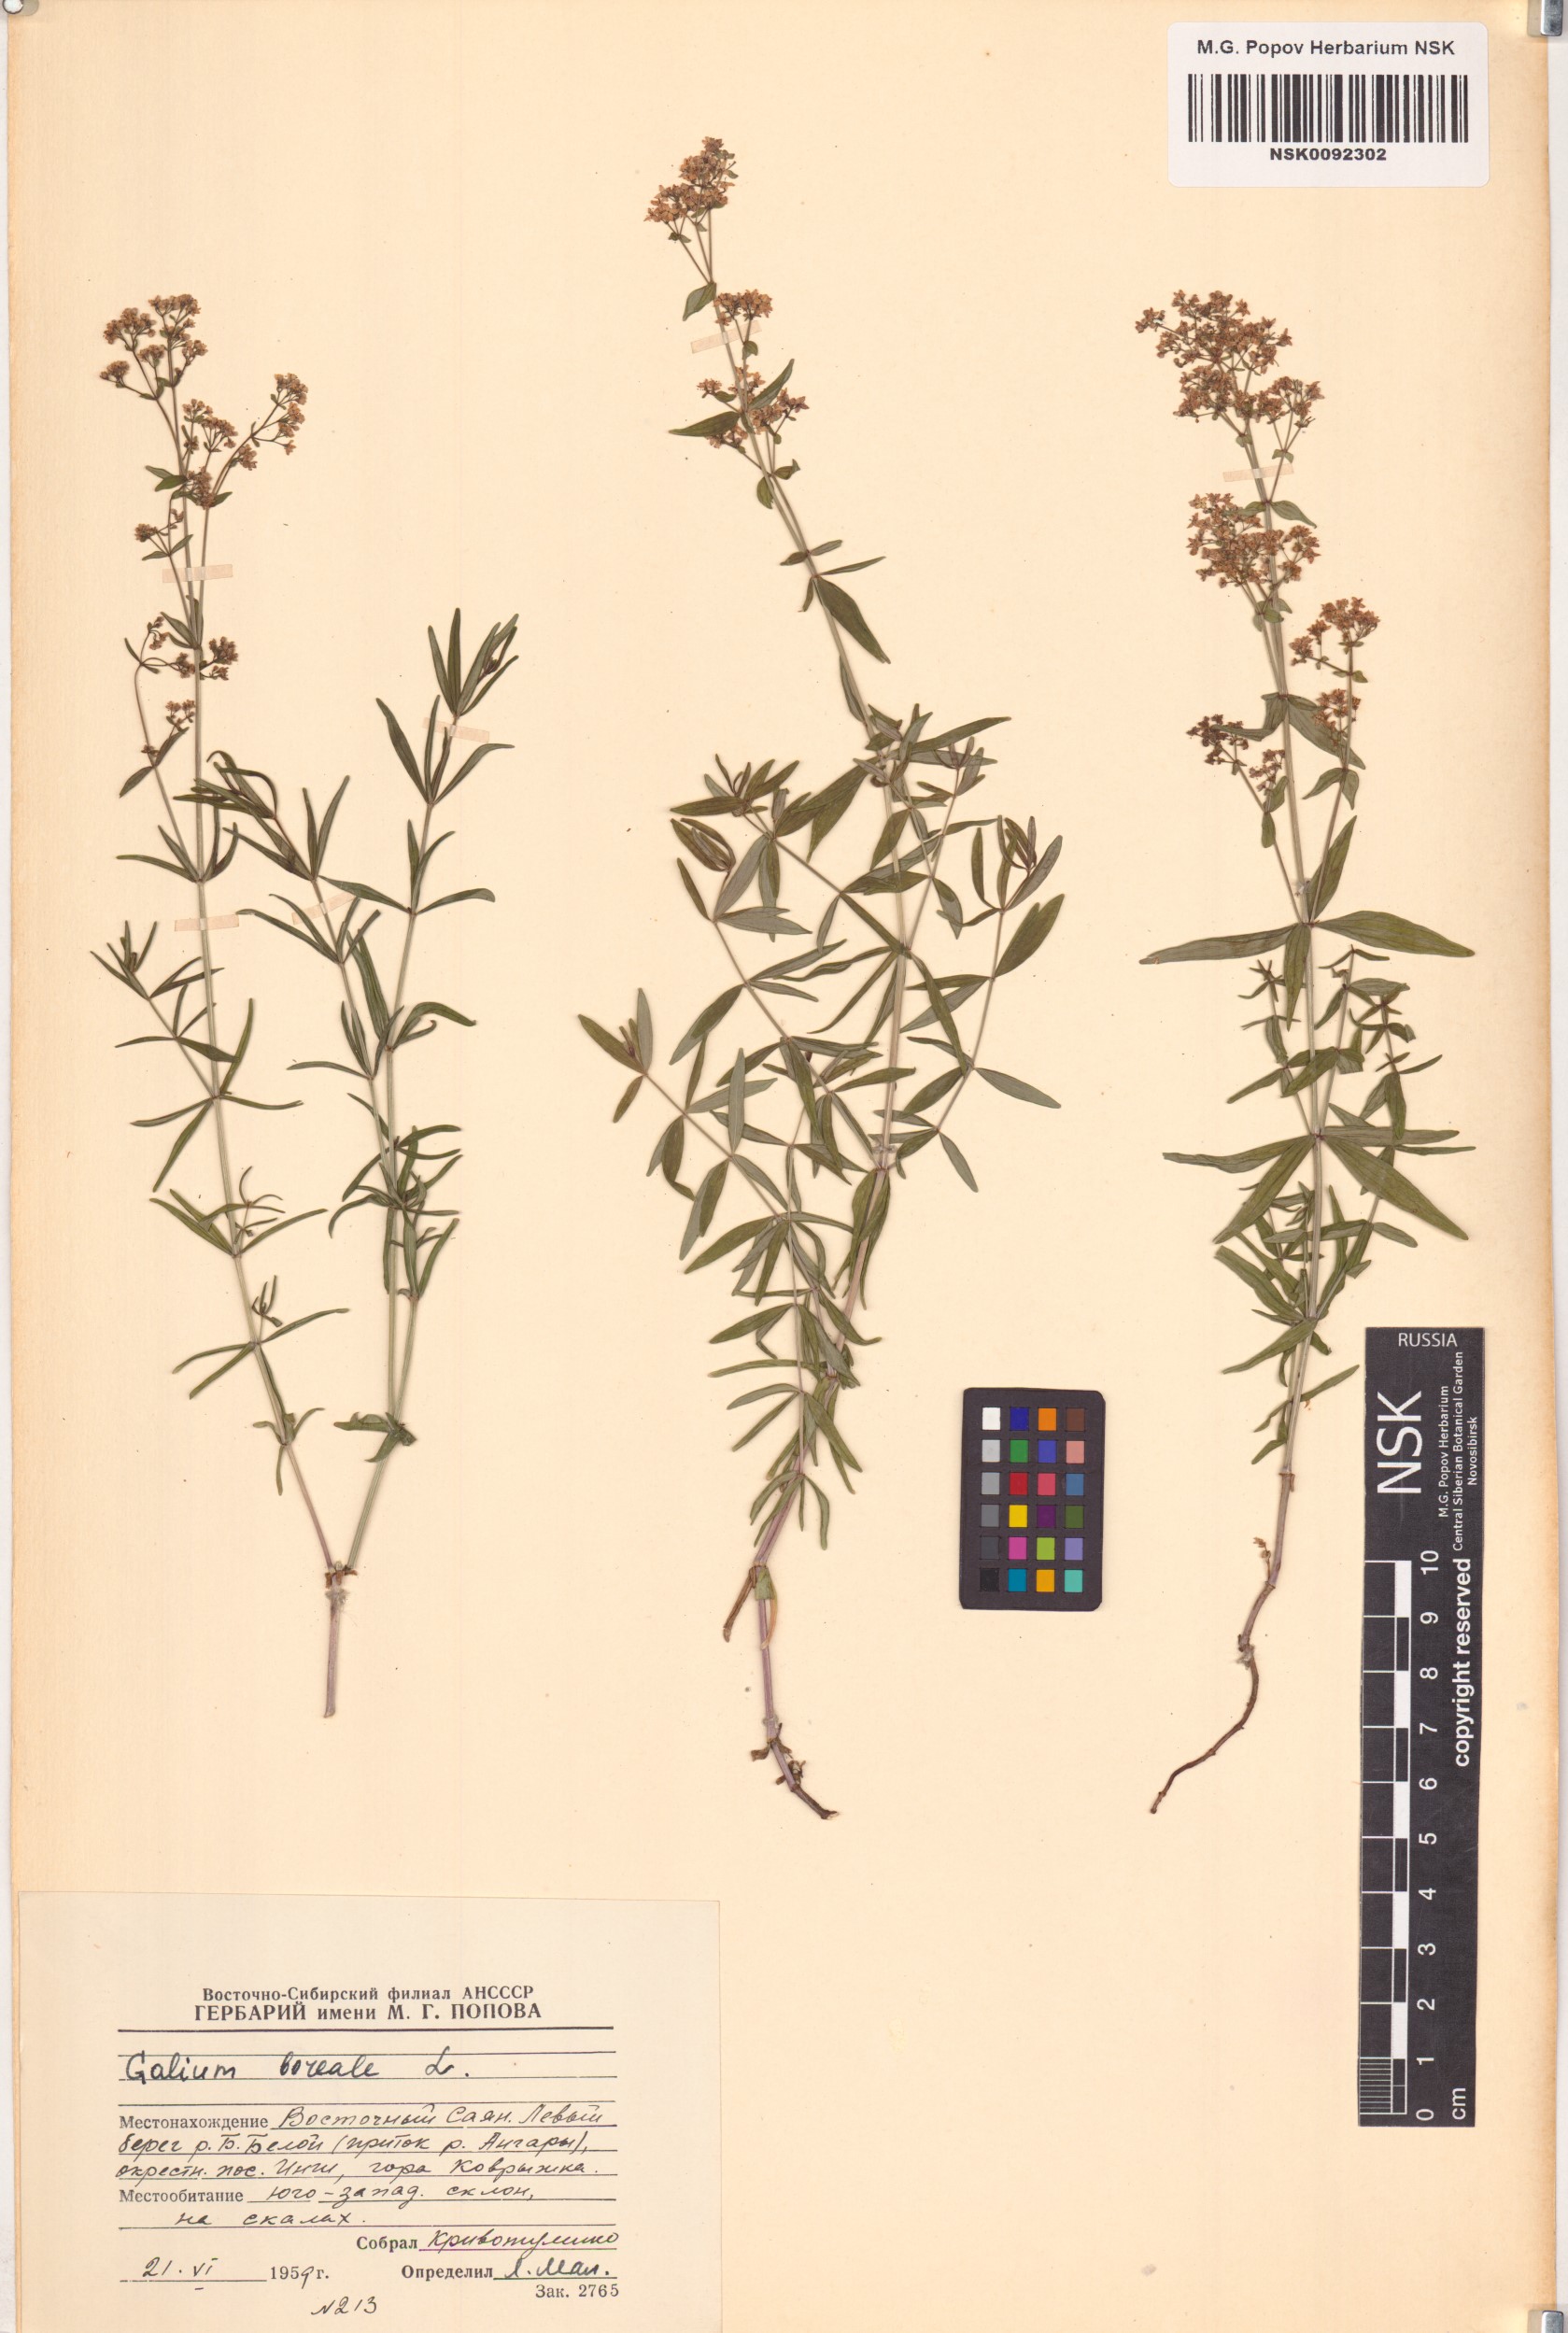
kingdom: Plantae
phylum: Tracheophyta
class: Magnoliopsida
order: Gentianales
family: Rubiaceae
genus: Galium
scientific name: Galium boreale
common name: Northern bedstraw
